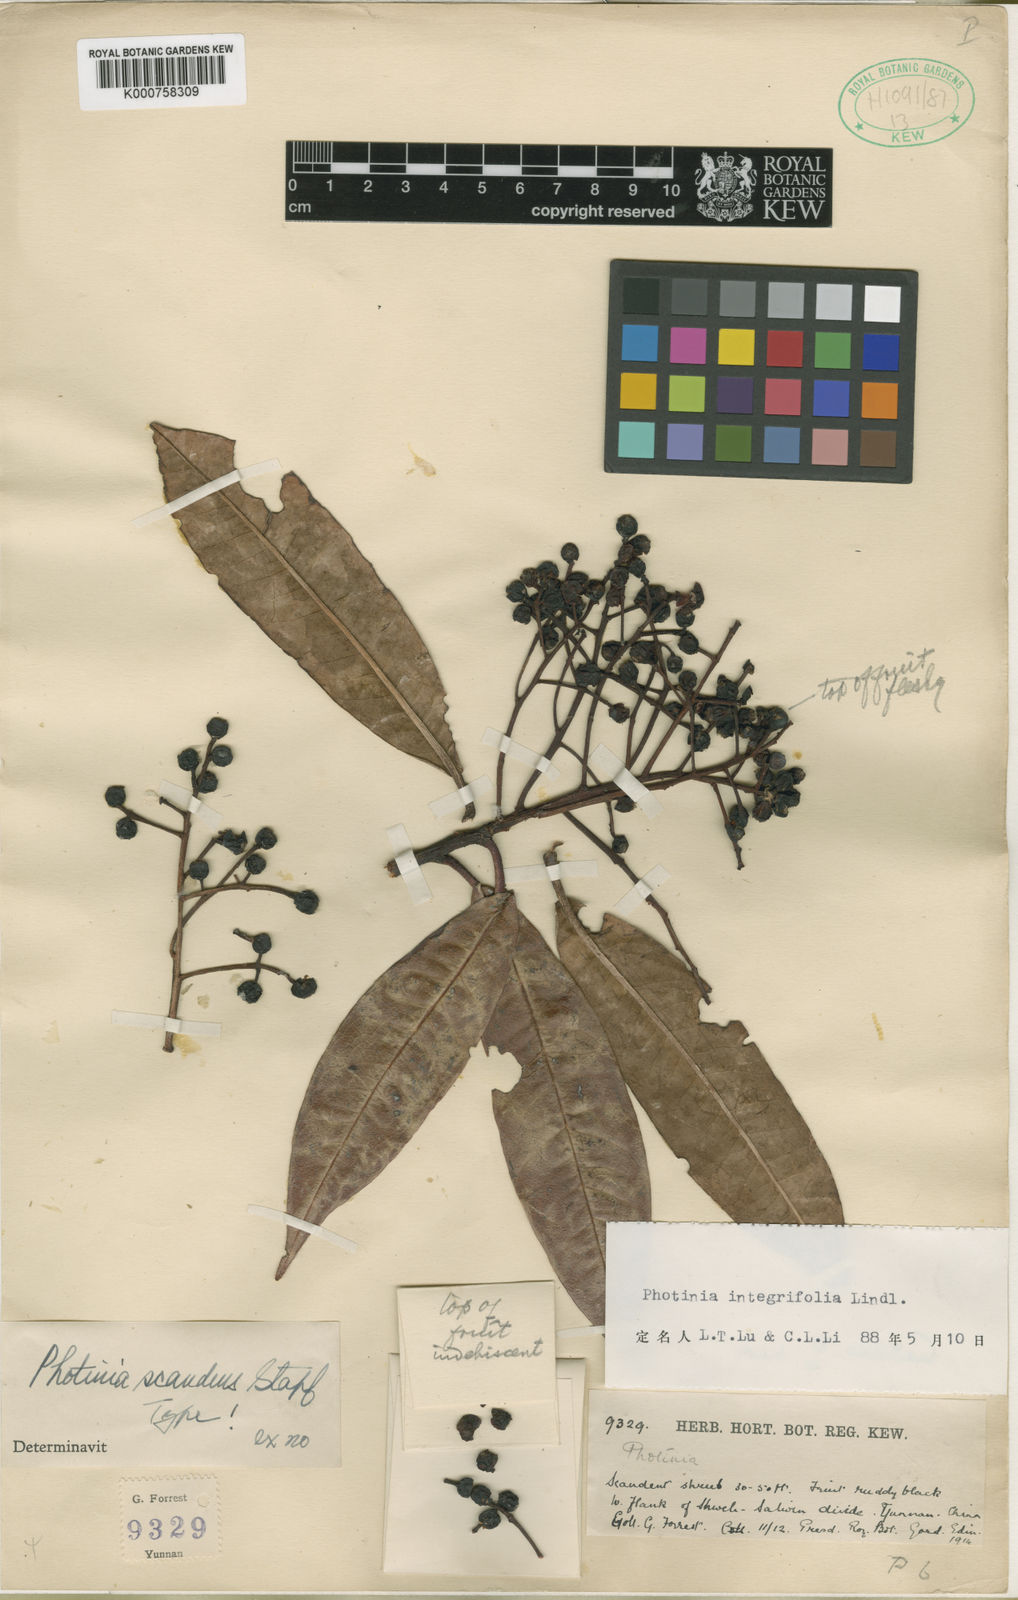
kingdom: Plantae
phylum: Tracheophyta
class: Magnoliopsida
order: Rosales
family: Rosaceae
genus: Photinia
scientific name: Photinia integrifolia
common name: Himalayan chokeberry
